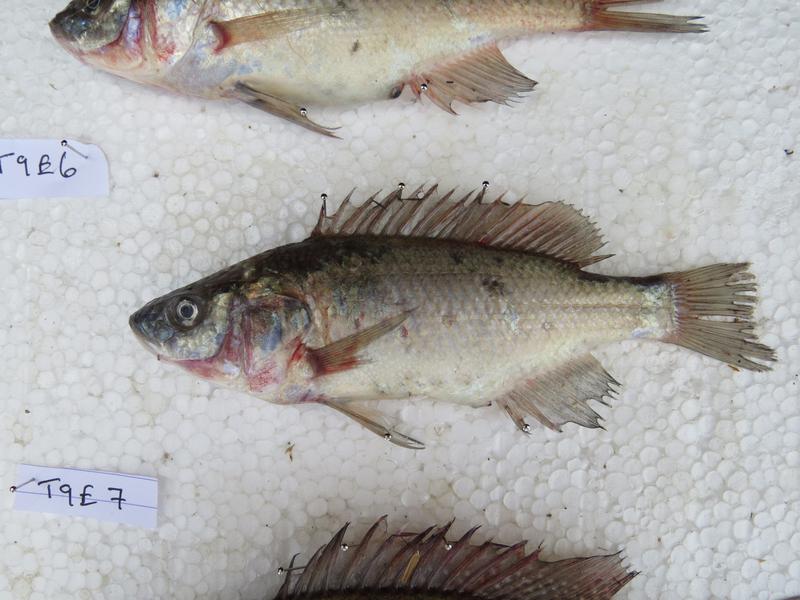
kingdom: Animalia
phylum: Chordata
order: Perciformes
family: Cichlidae
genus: Oreochromis
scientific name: Oreochromis amphimelas
